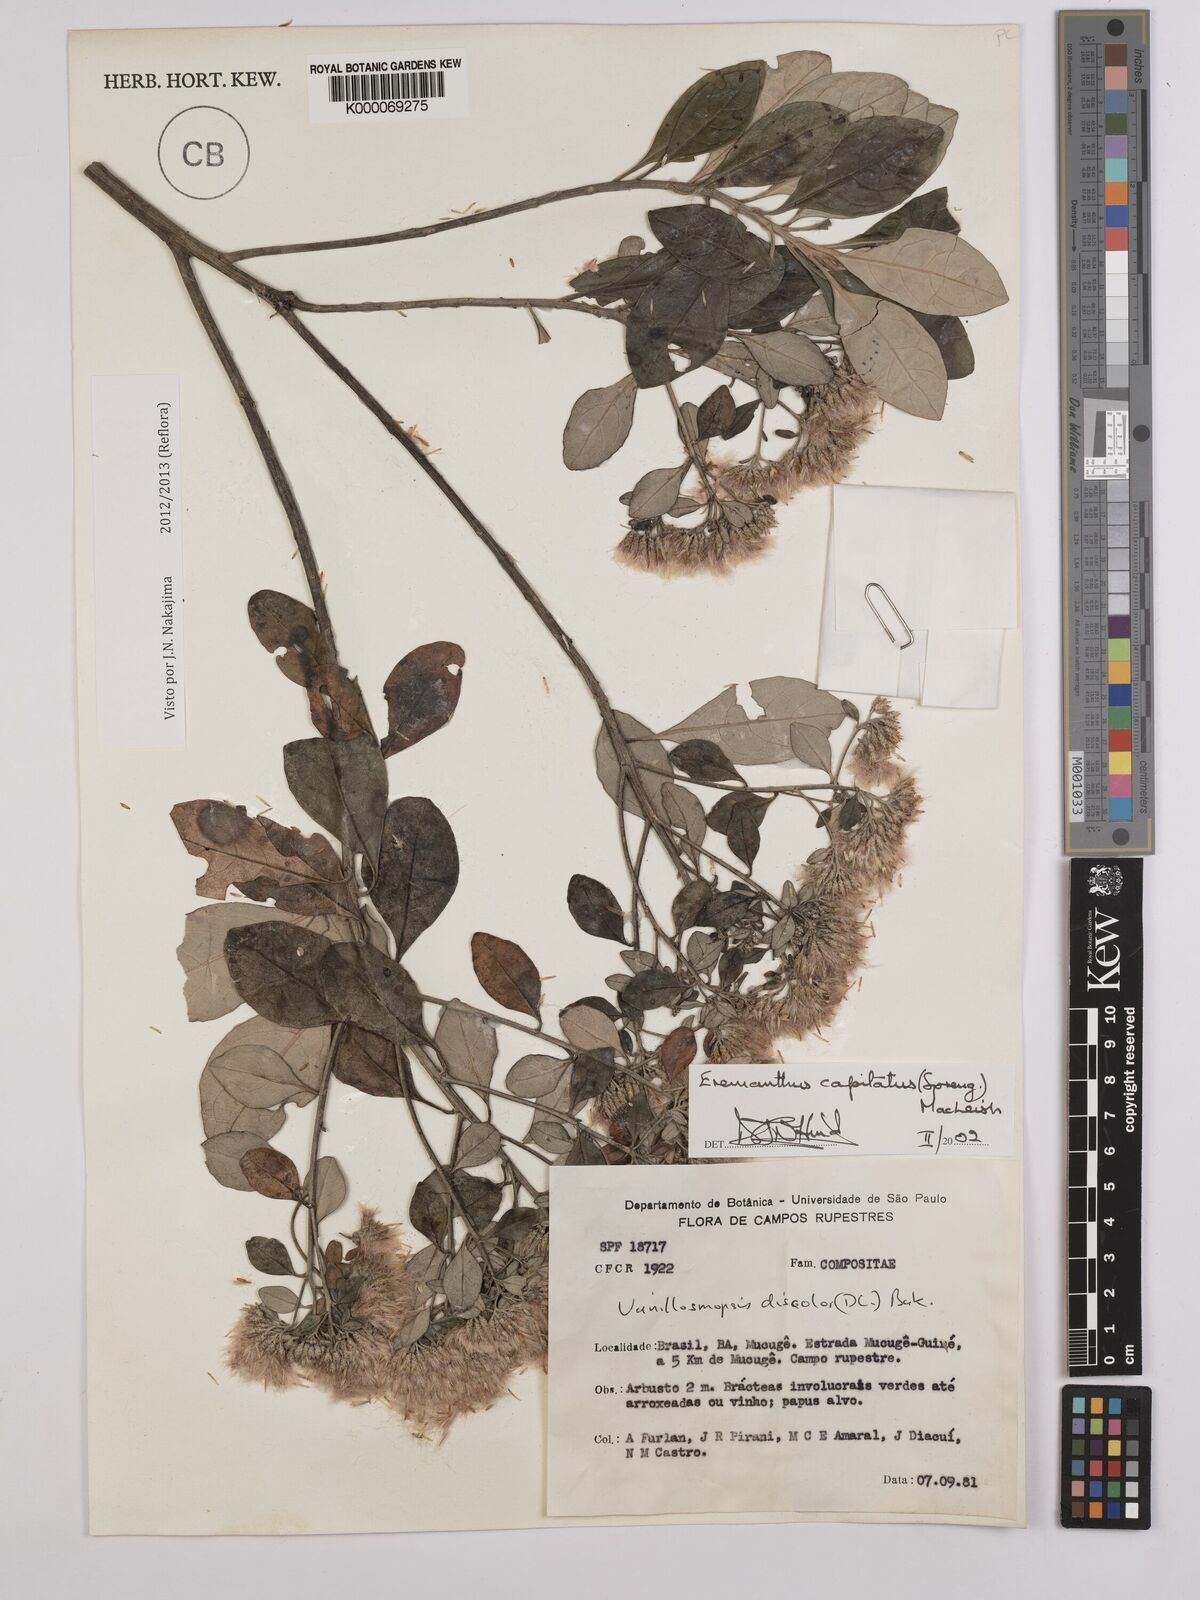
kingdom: Plantae
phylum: Tracheophyta
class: Magnoliopsida
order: Asterales
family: Asteraceae
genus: Eremanthus
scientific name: Eremanthus capitatus
